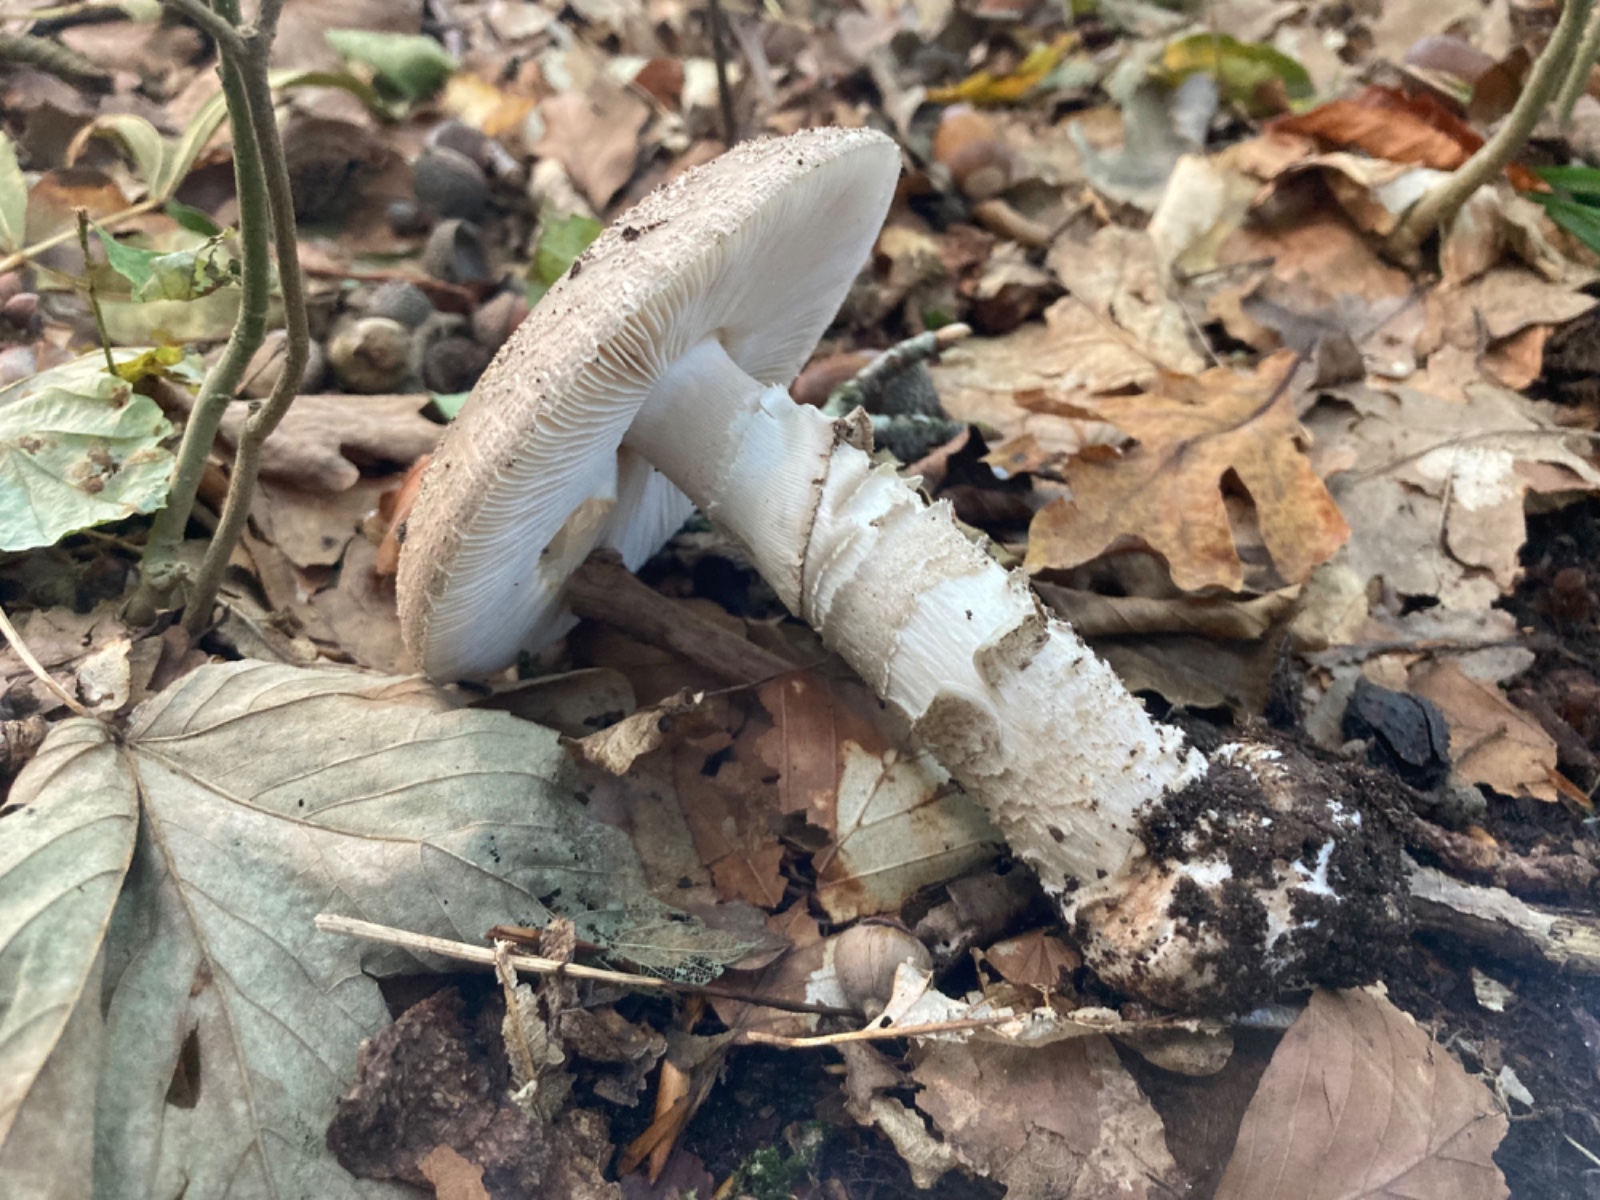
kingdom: Fungi
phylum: Basidiomycota
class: Agaricomycetes
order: Agaricales
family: Amanitaceae
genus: Amanita
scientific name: Amanita
